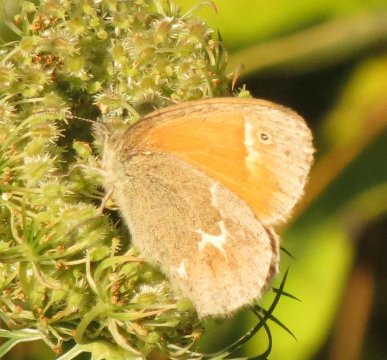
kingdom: Animalia
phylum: Arthropoda
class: Insecta
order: Lepidoptera
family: Nymphalidae
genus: Coenonympha
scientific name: Coenonympha tullia
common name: Large Heath
